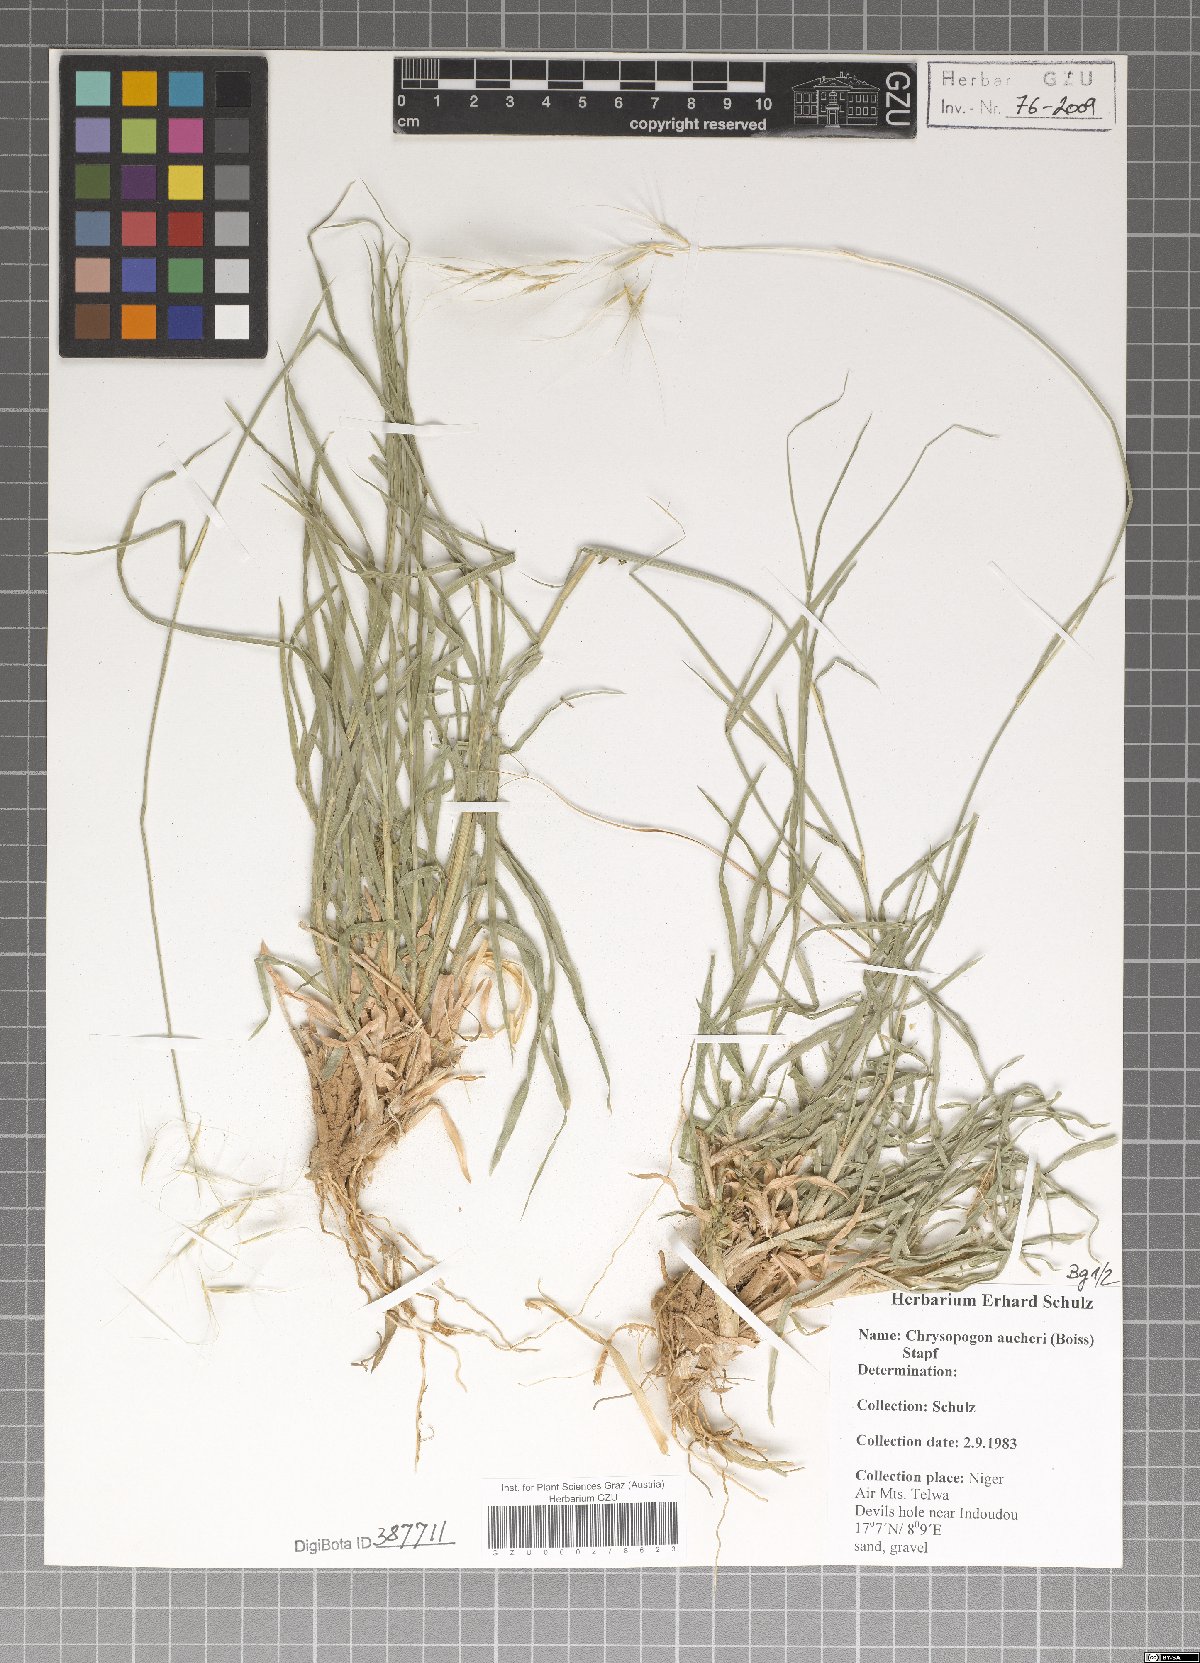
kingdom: Plantae
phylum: Tracheophyta
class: Liliopsida
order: Poales
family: Poaceae
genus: Chrysopogon
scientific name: Chrysopogon aucheri
